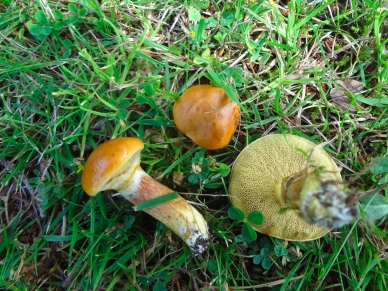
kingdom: Fungi
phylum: Basidiomycota
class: Agaricomycetes
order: Boletales
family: Suillaceae
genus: Suillus
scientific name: Suillus grevillei
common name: lærke-slimrørhat
